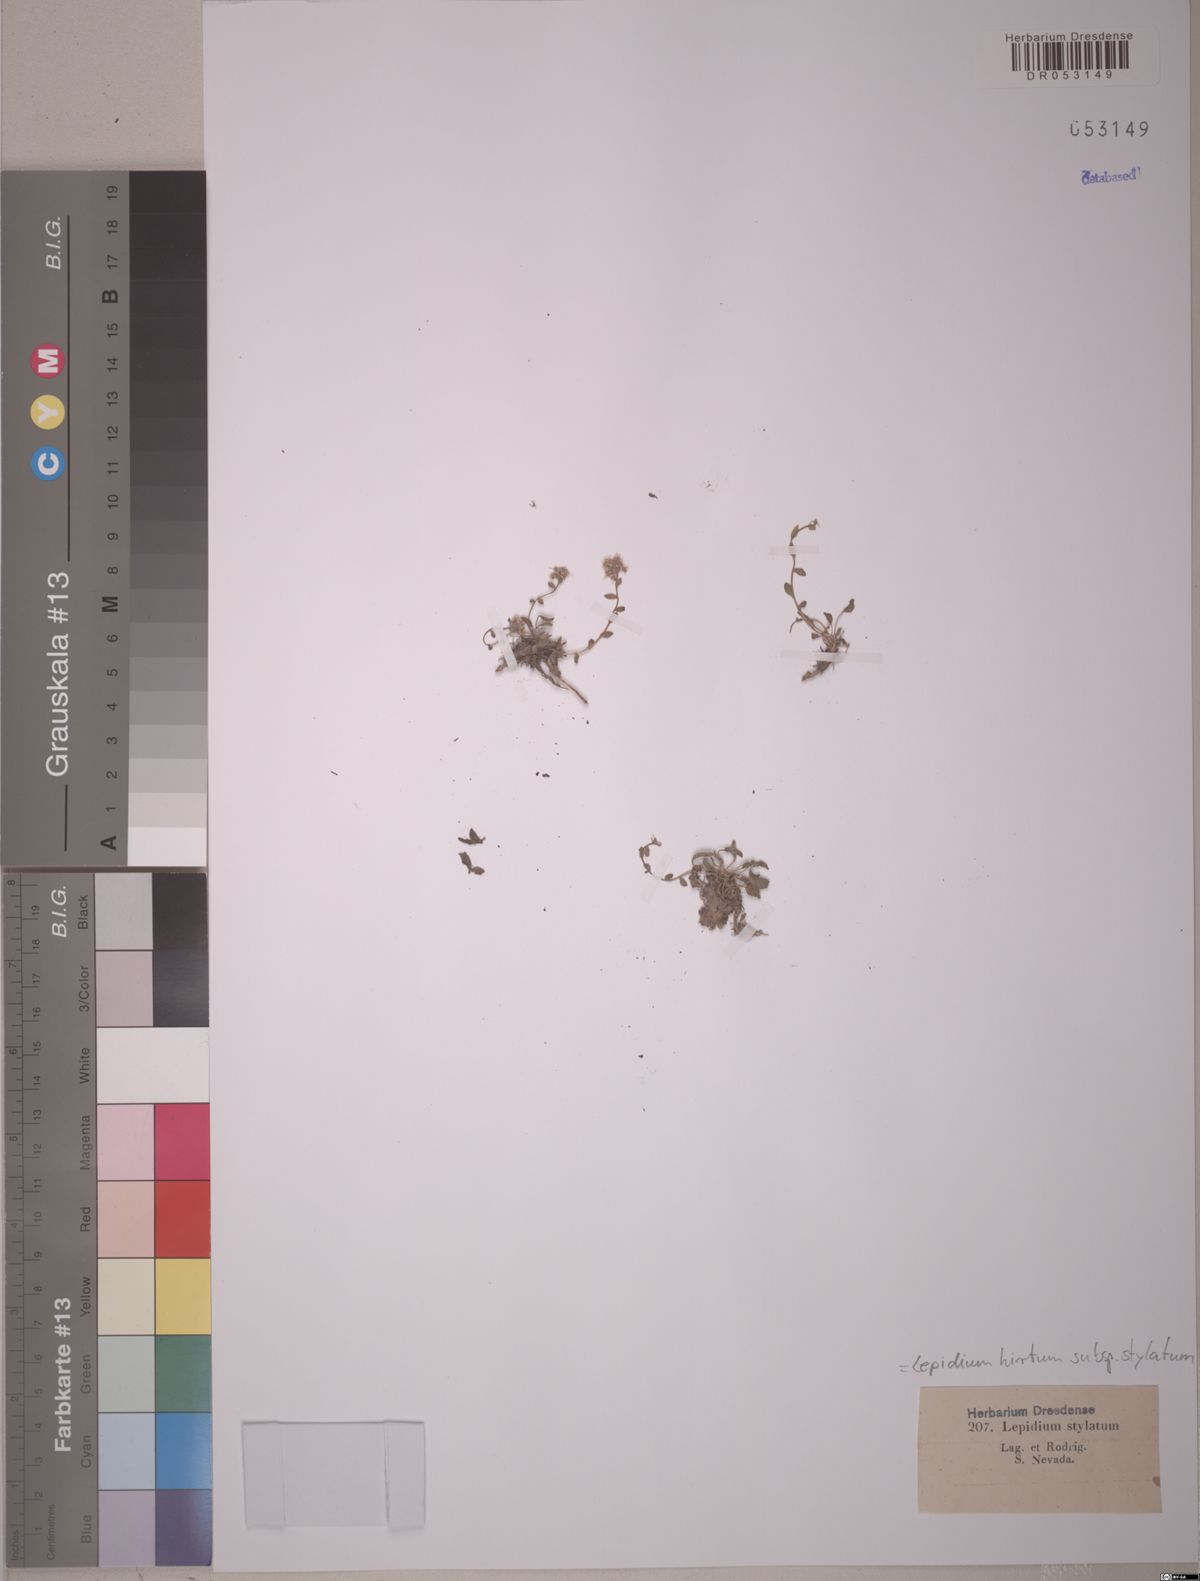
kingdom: Plantae
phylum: Tracheophyta
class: Magnoliopsida
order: Brassicales
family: Brassicaceae
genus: Lepidium
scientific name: Lepidium hirtum
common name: Mediterranean pepperweed
